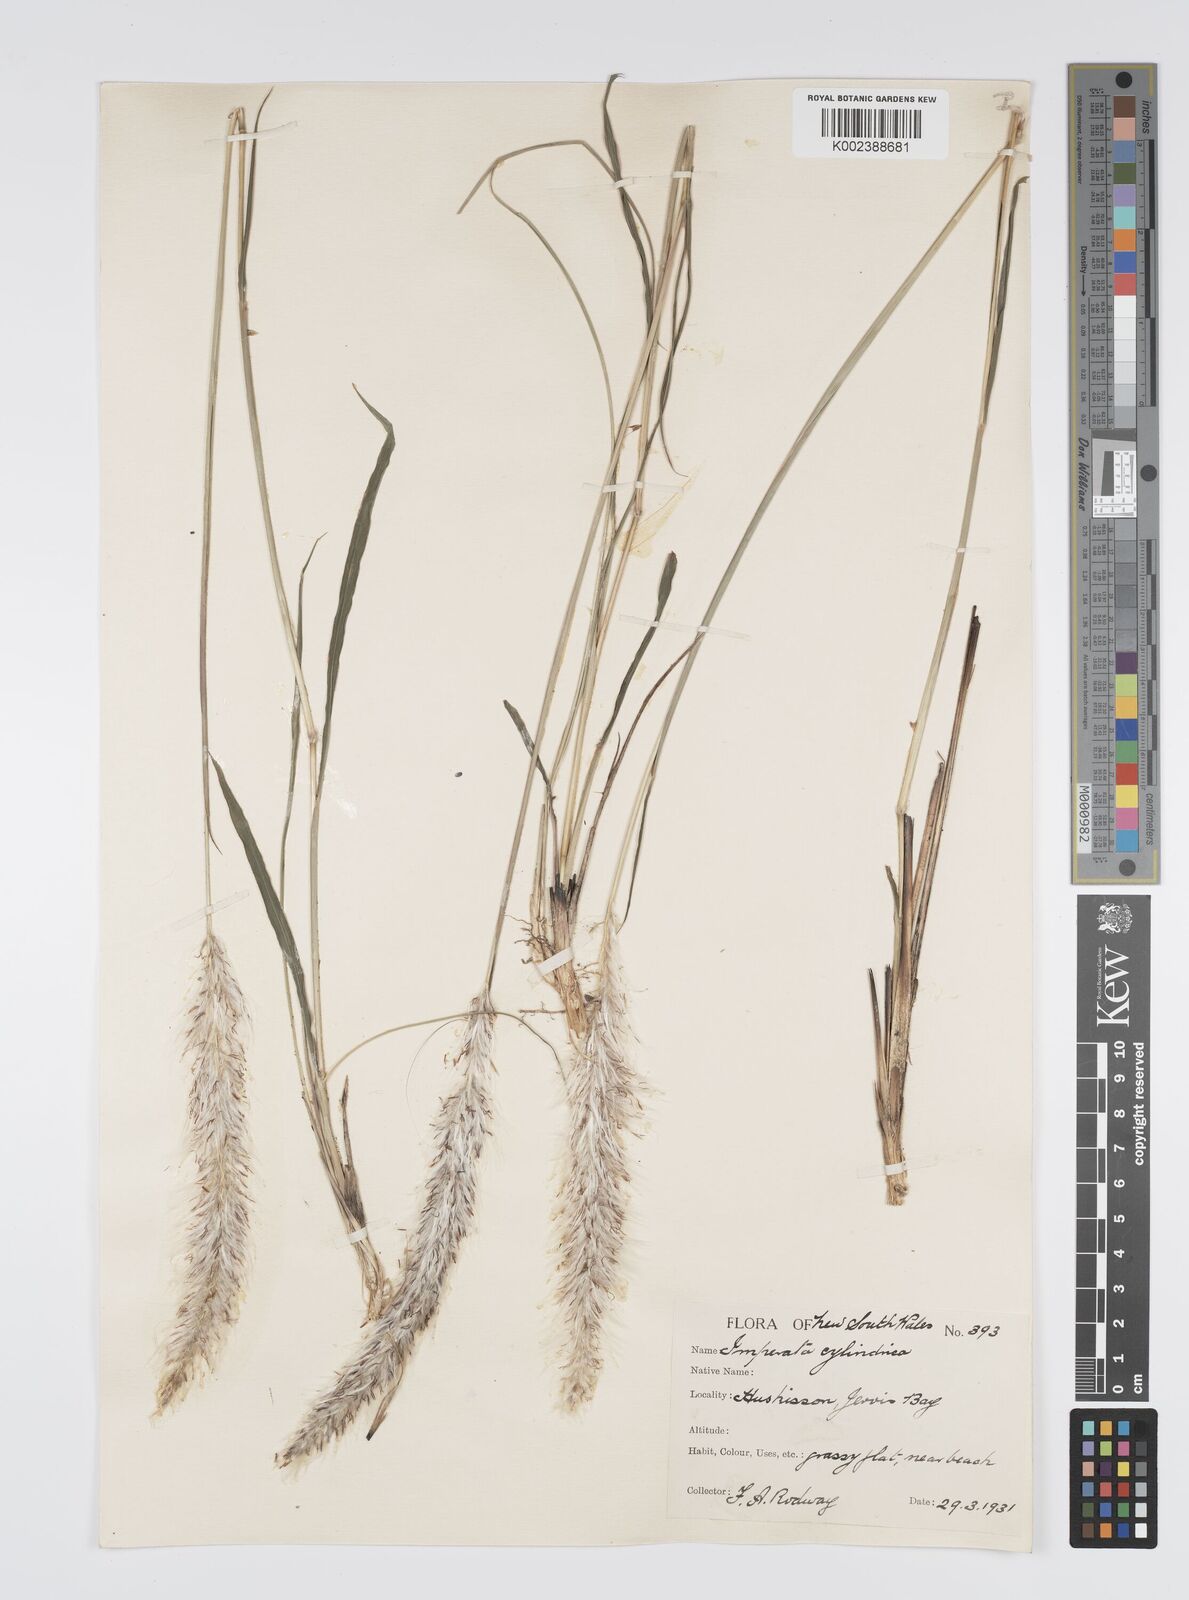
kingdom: Plantae
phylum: Tracheophyta
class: Liliopsida
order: Poales
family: Poaceae
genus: Imperata
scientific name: Imperata cylindrica
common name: Cogongrass
